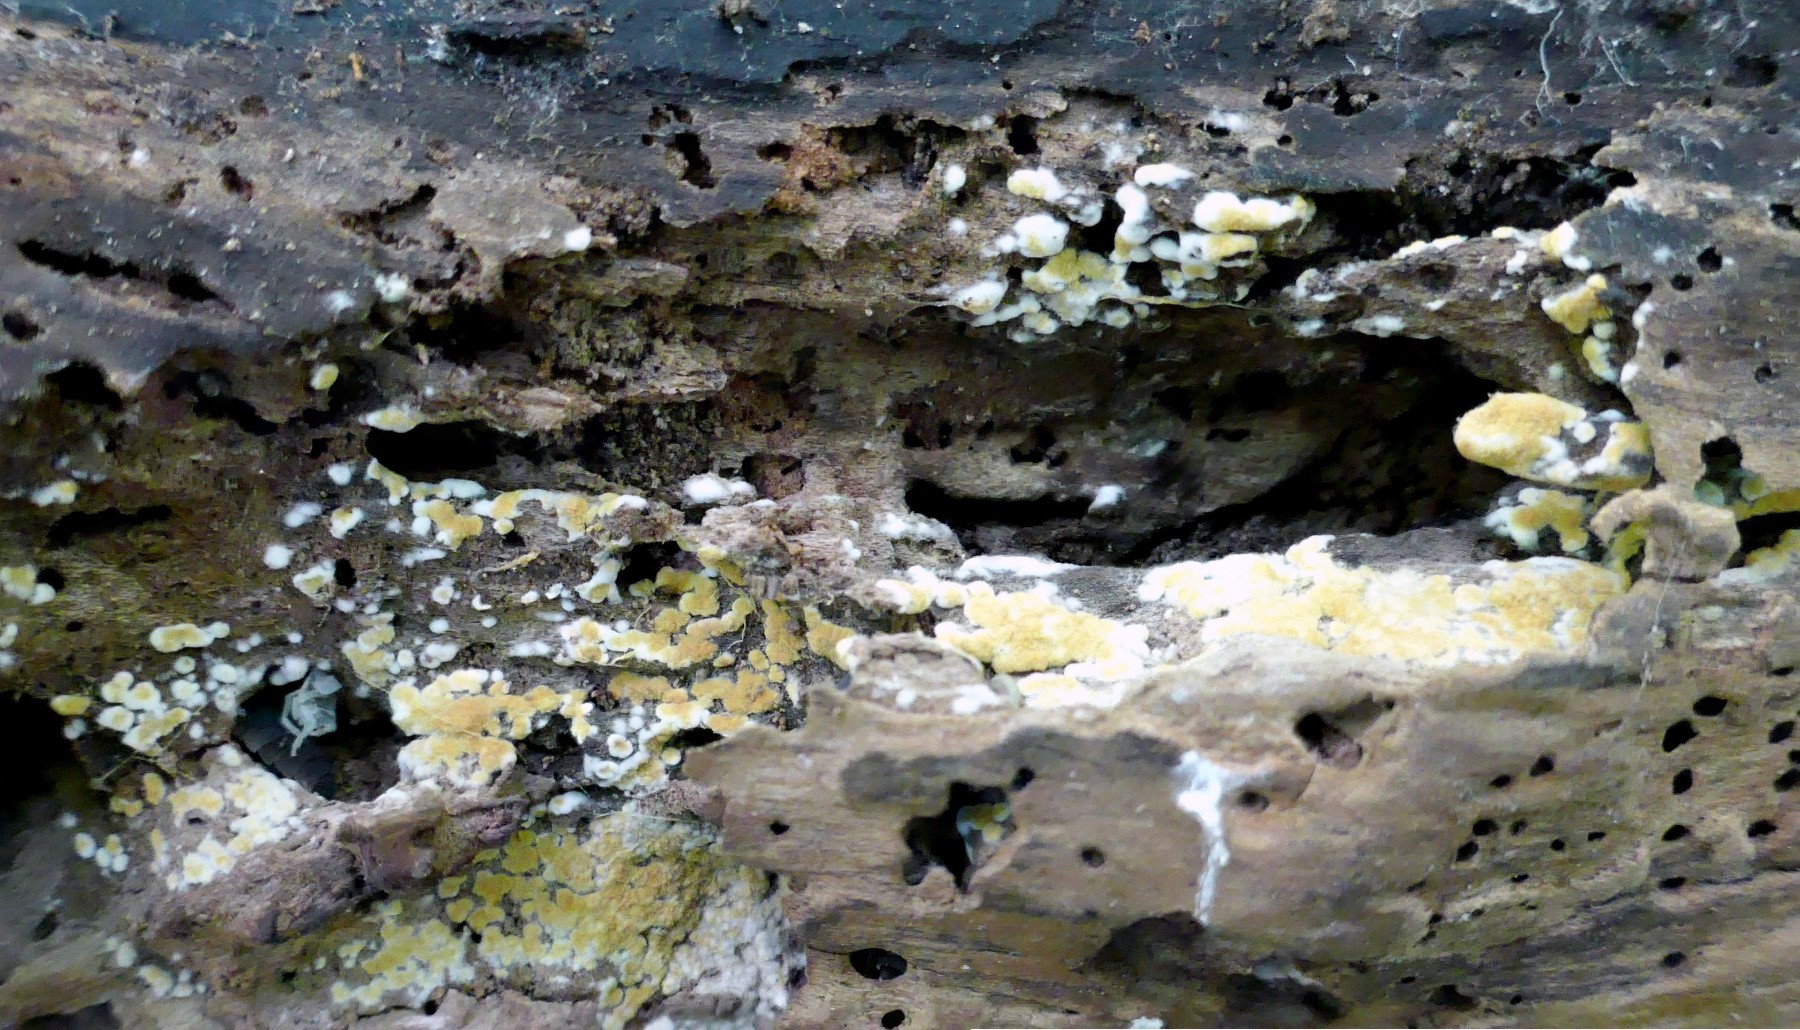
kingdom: Fungi
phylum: Basidiomycota
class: Agaricomycetes
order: Cantharellales
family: Botryobasidiaceae
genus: Botryobasidium
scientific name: Botryobasidium aureum
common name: gylden spindhinde
